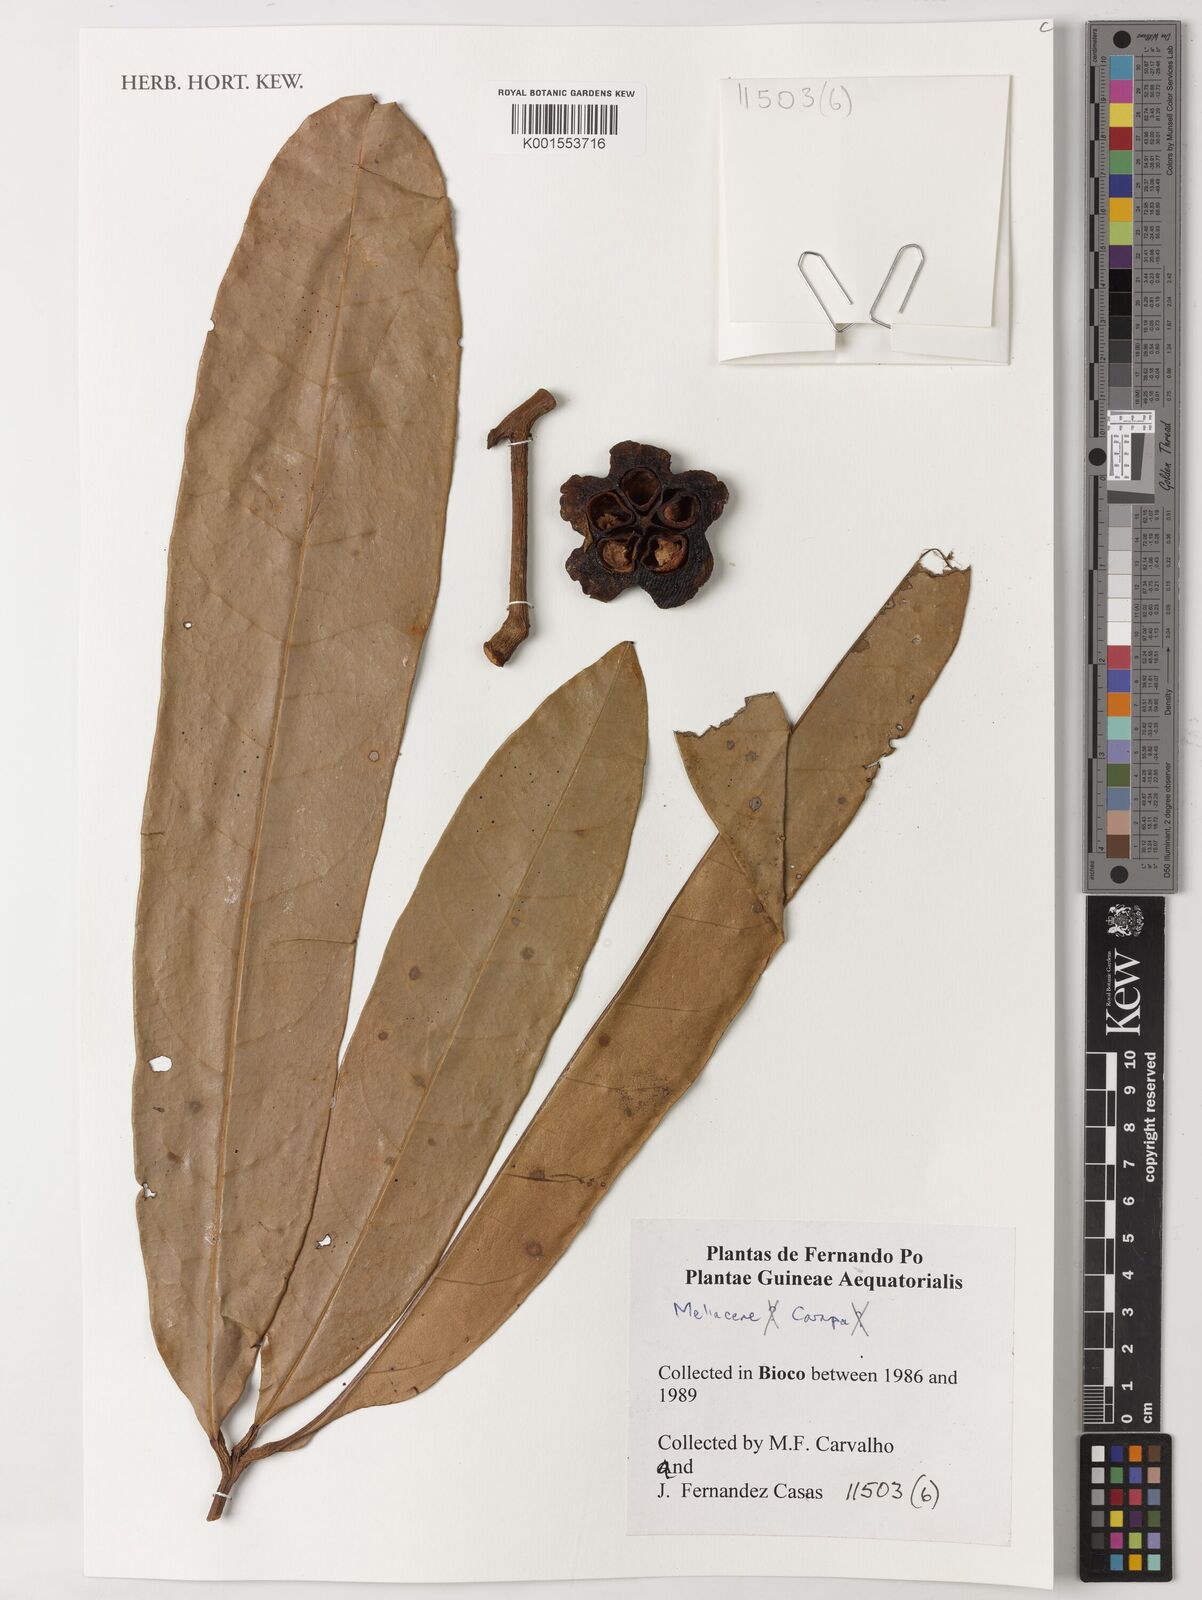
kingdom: Plantae
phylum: Tracheophyta
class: Magnoliopsida
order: Sapindales
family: Meliaceae
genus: Carapa
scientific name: Carapa
